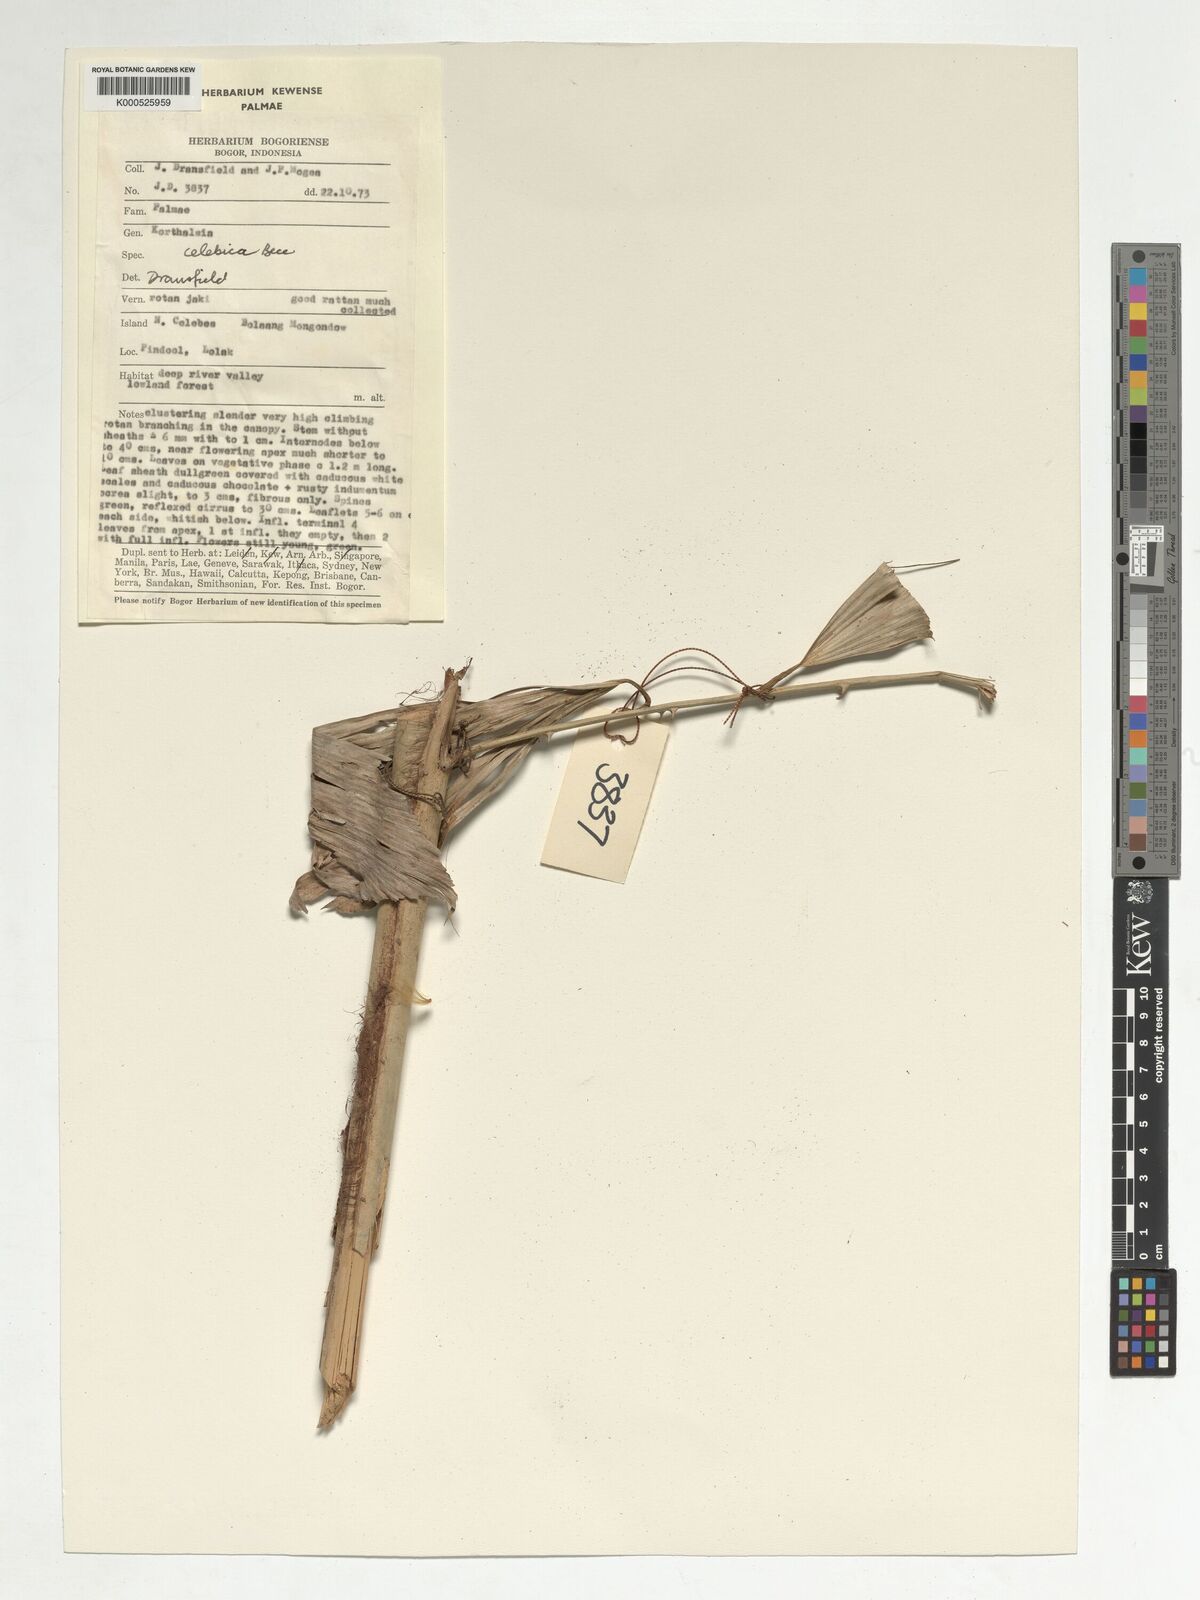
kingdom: Plantae
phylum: Tracheophyta
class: Liliopsida
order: Arecales
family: Arecaceae
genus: Korthalsia
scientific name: Korthalsia celebica
